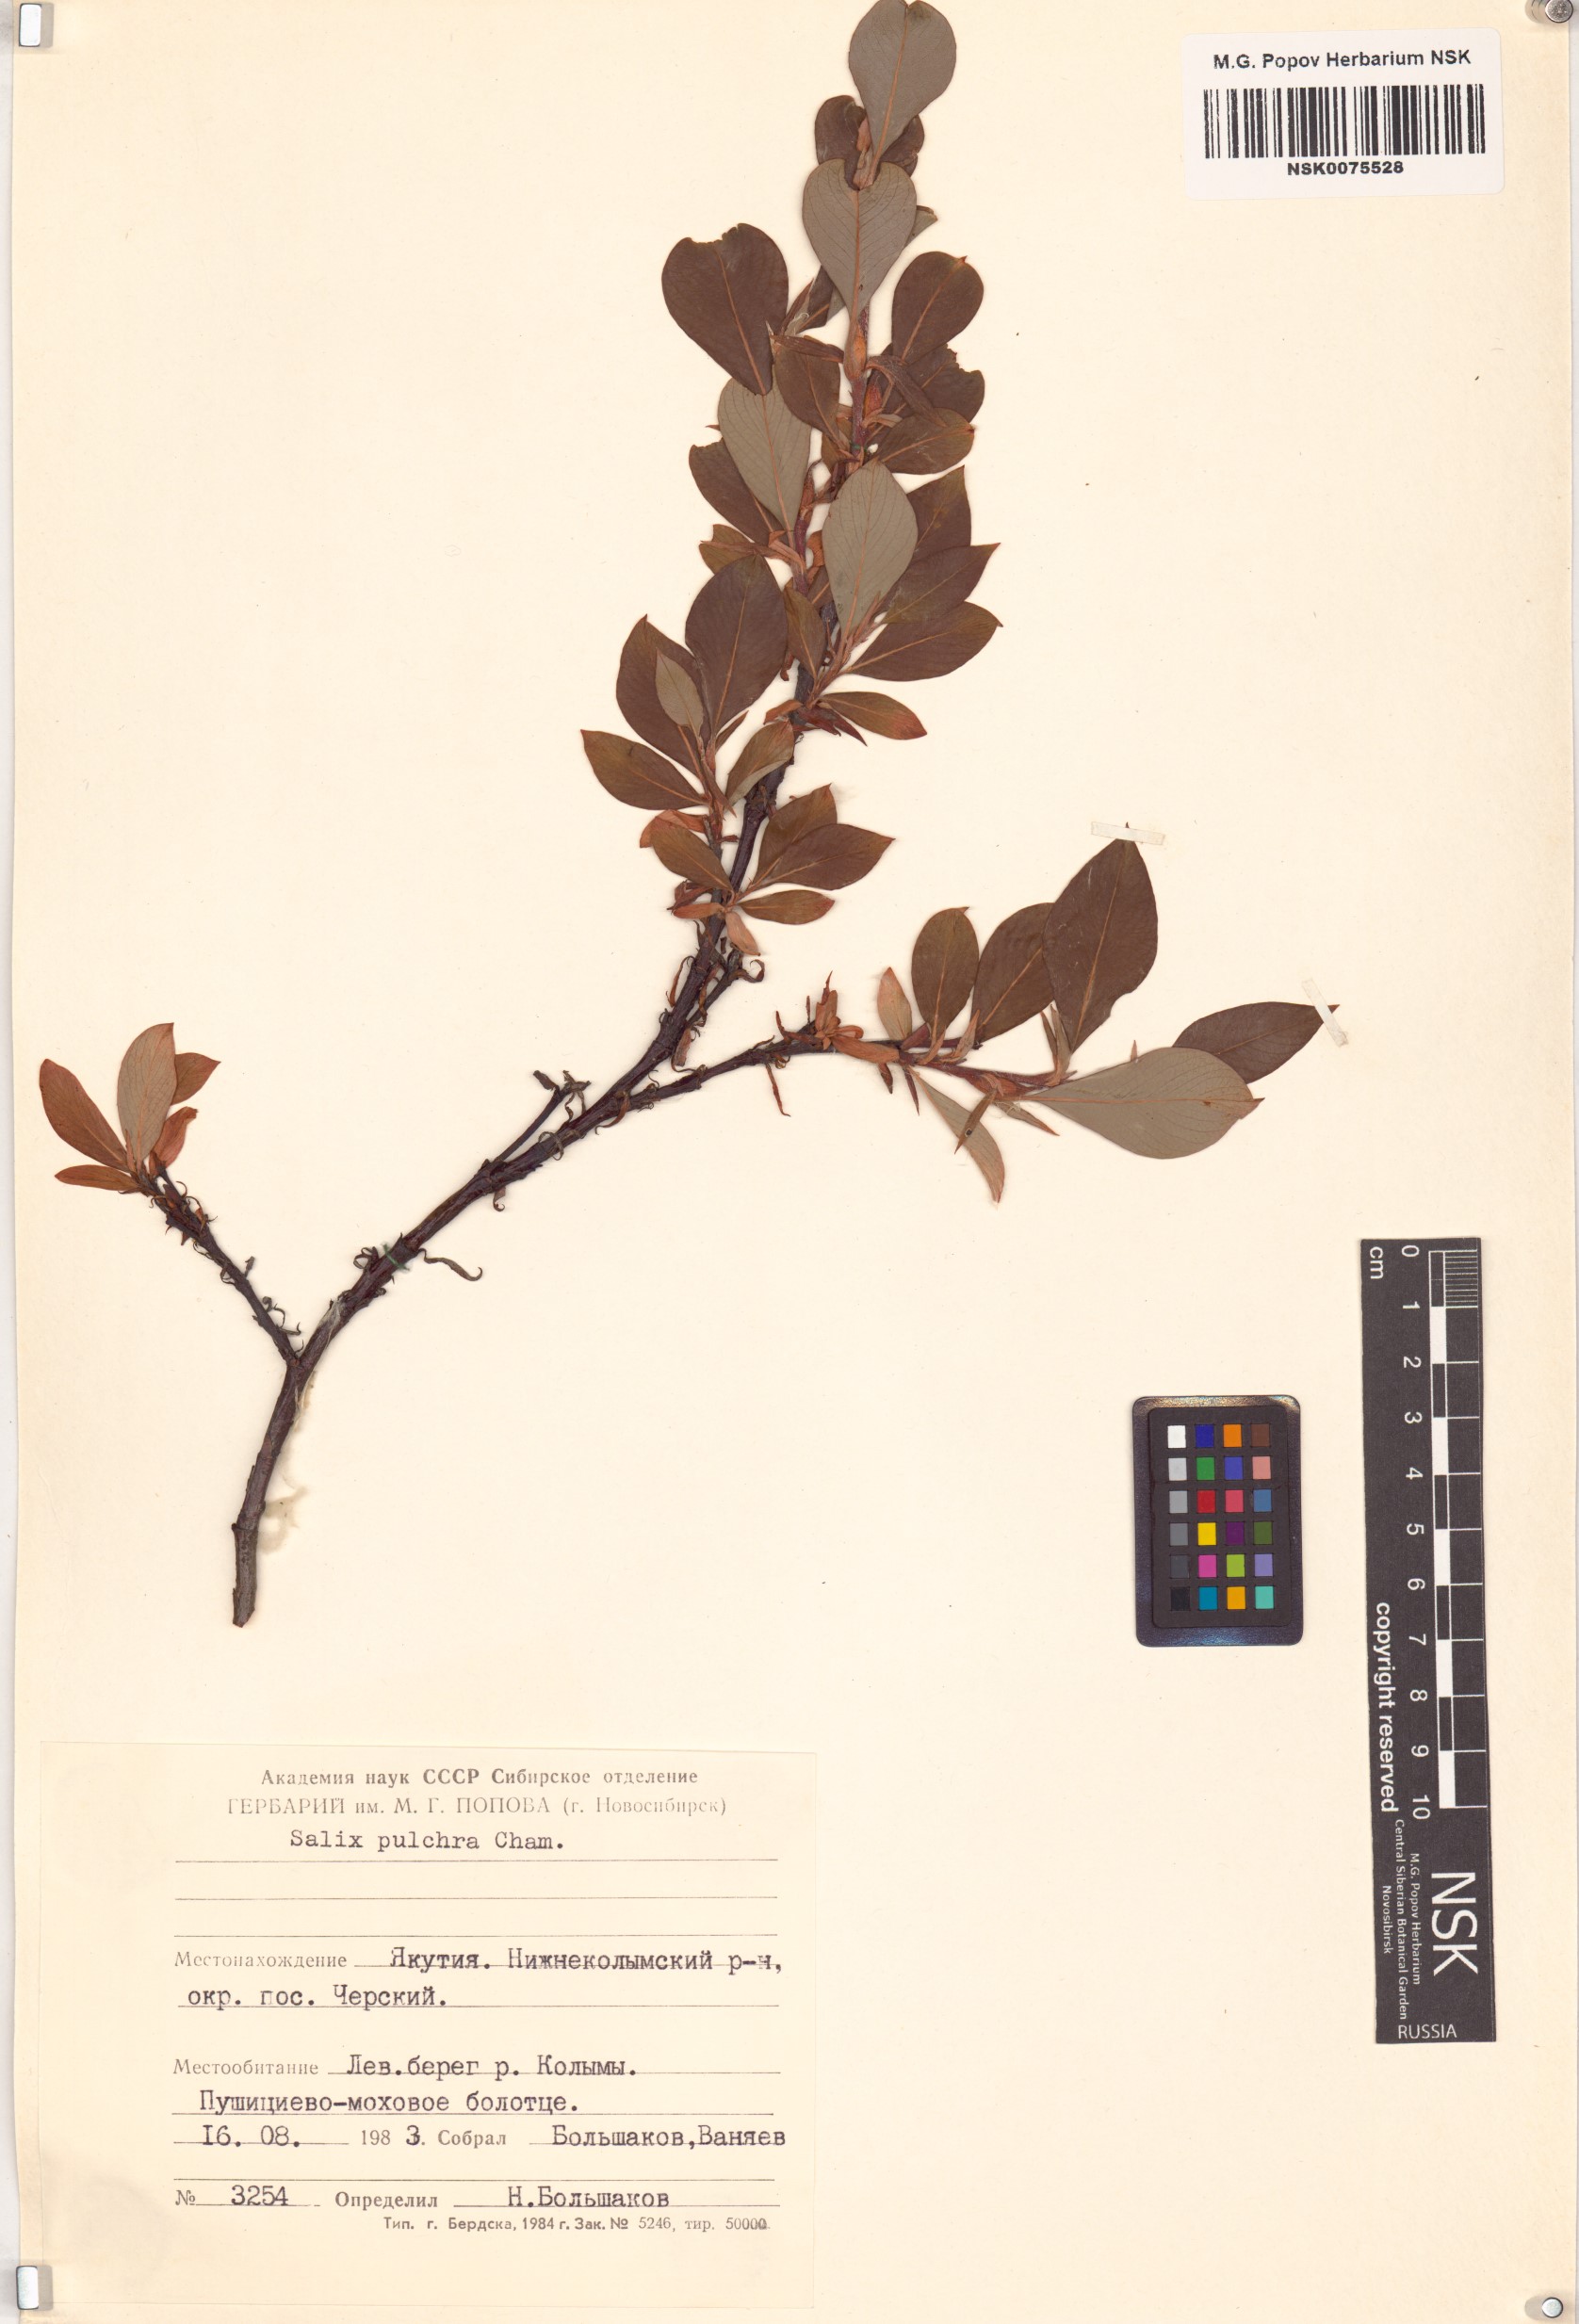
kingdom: Plantae
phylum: Tracheophyta
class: Magnoliopsida
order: Malpighiales
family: Salicaceae
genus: Salix
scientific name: Salix pulchra
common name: Diamond-leaved willow
